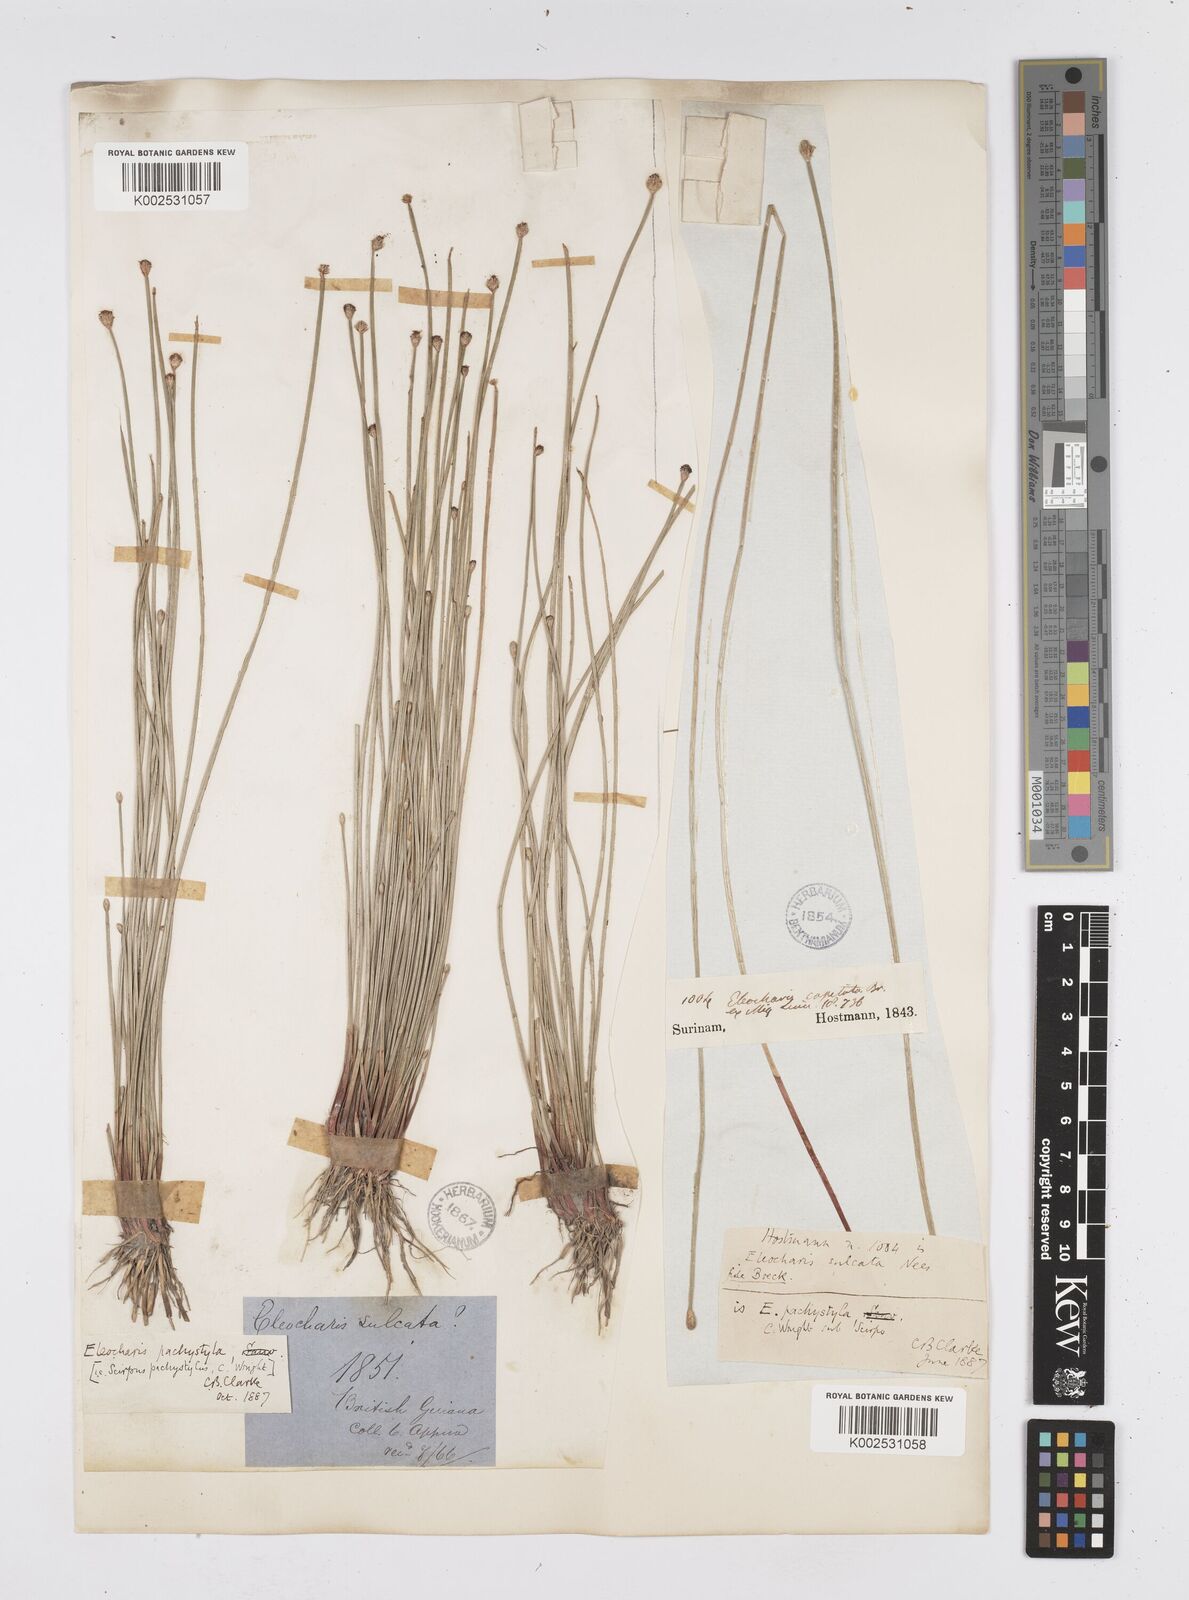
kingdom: Plantae
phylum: Tracheophyta
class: Liliopsida
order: Poales
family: Cyperaceae
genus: Eleocharis
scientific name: Eleocharis pachystyla
